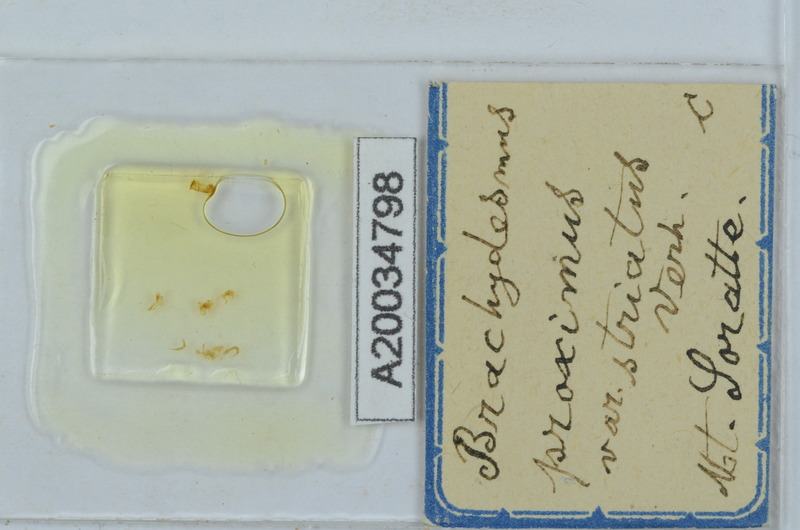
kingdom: Animalia
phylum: Arthropoda
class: Diplopoda
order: Polydesmida
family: Polydesmidae
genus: Brachydesmus
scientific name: Brachydesmus proximus
